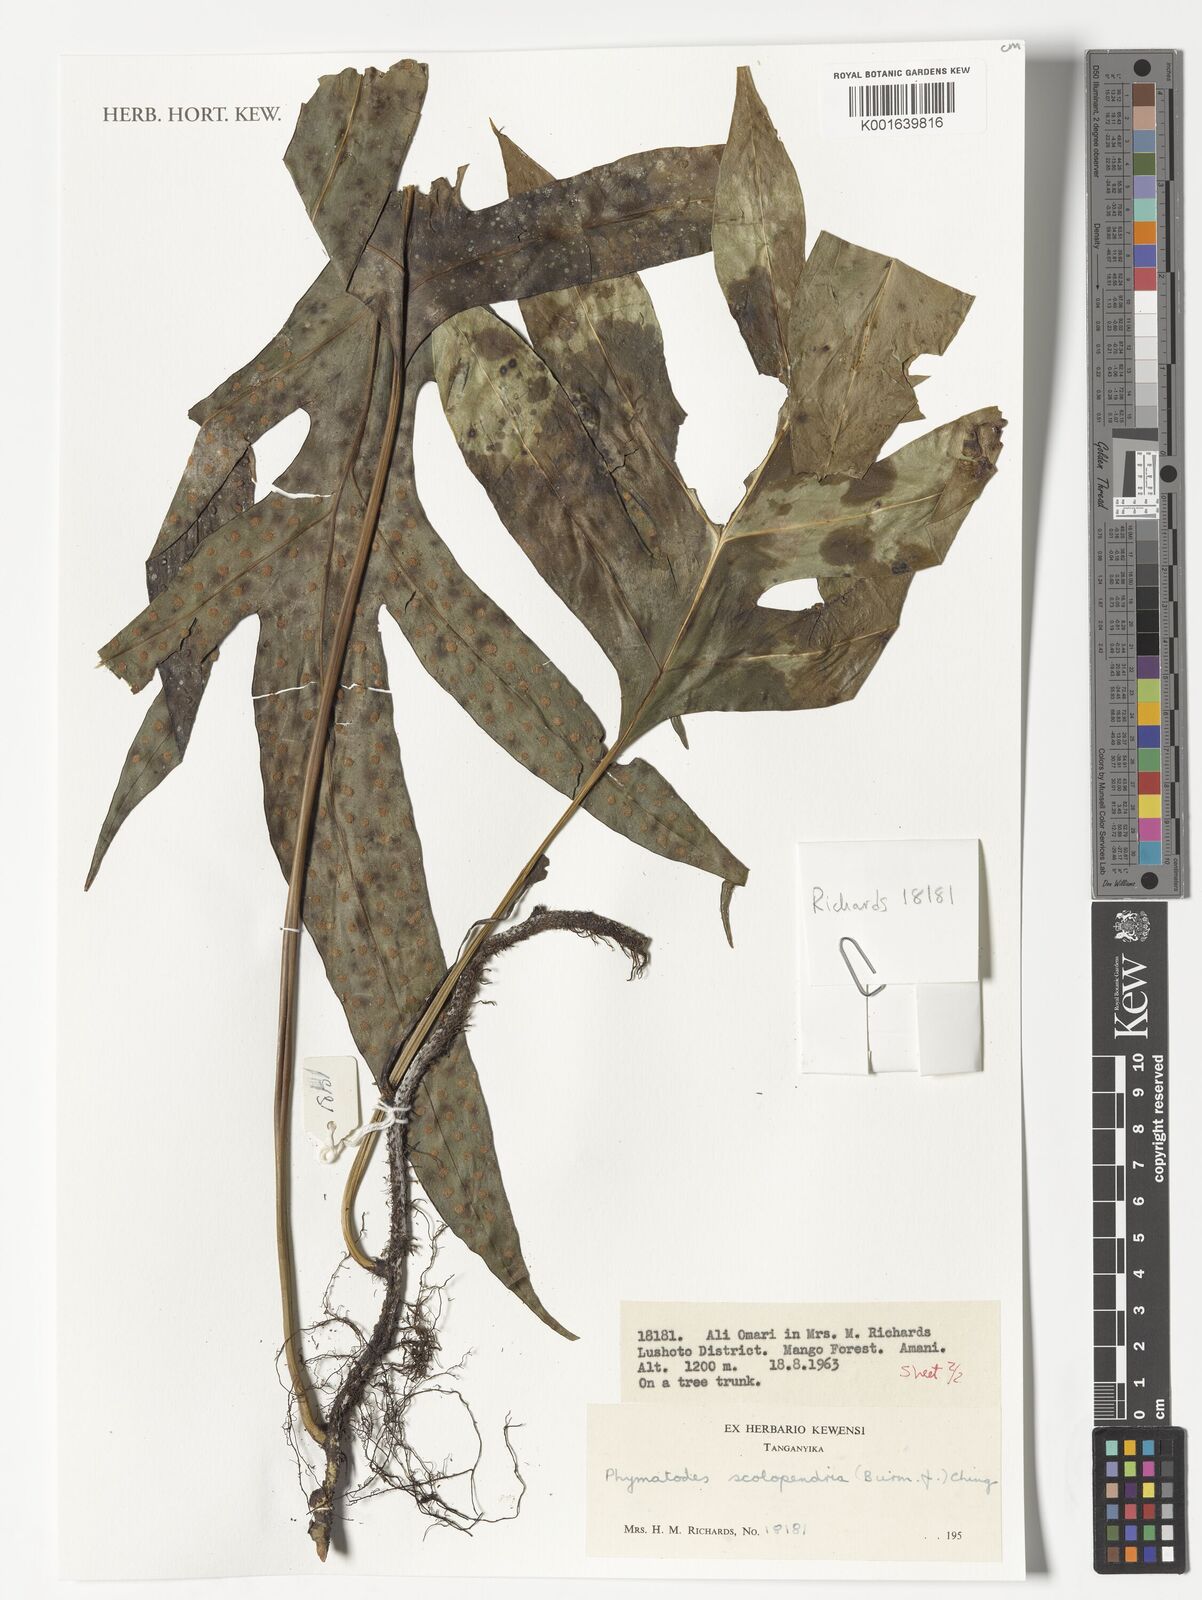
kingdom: Plantae
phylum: Tracheophyta
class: Polypodiopsida
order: Polypodiales
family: Polypodiaceae
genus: Microsorum
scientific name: Microsorum scolopendria
